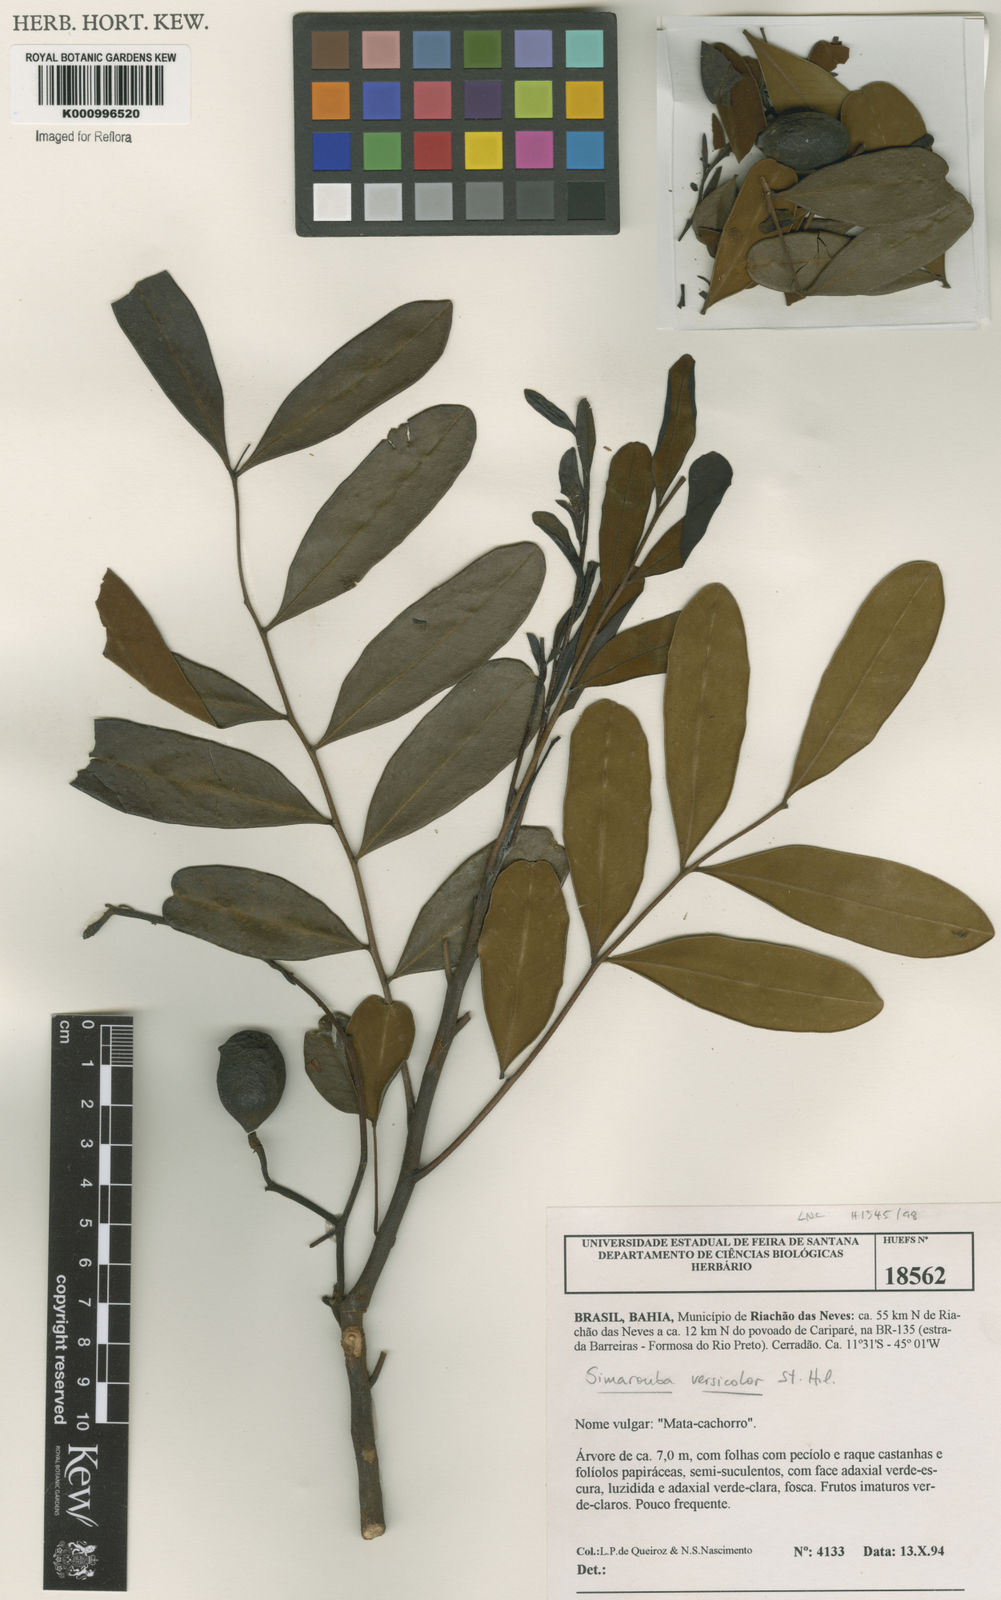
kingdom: Plantae
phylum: Tracheophyta
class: Magnoliopsida
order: Sapindales
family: Simaroubaceae
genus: Simarouba
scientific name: Simarouba versicolor
